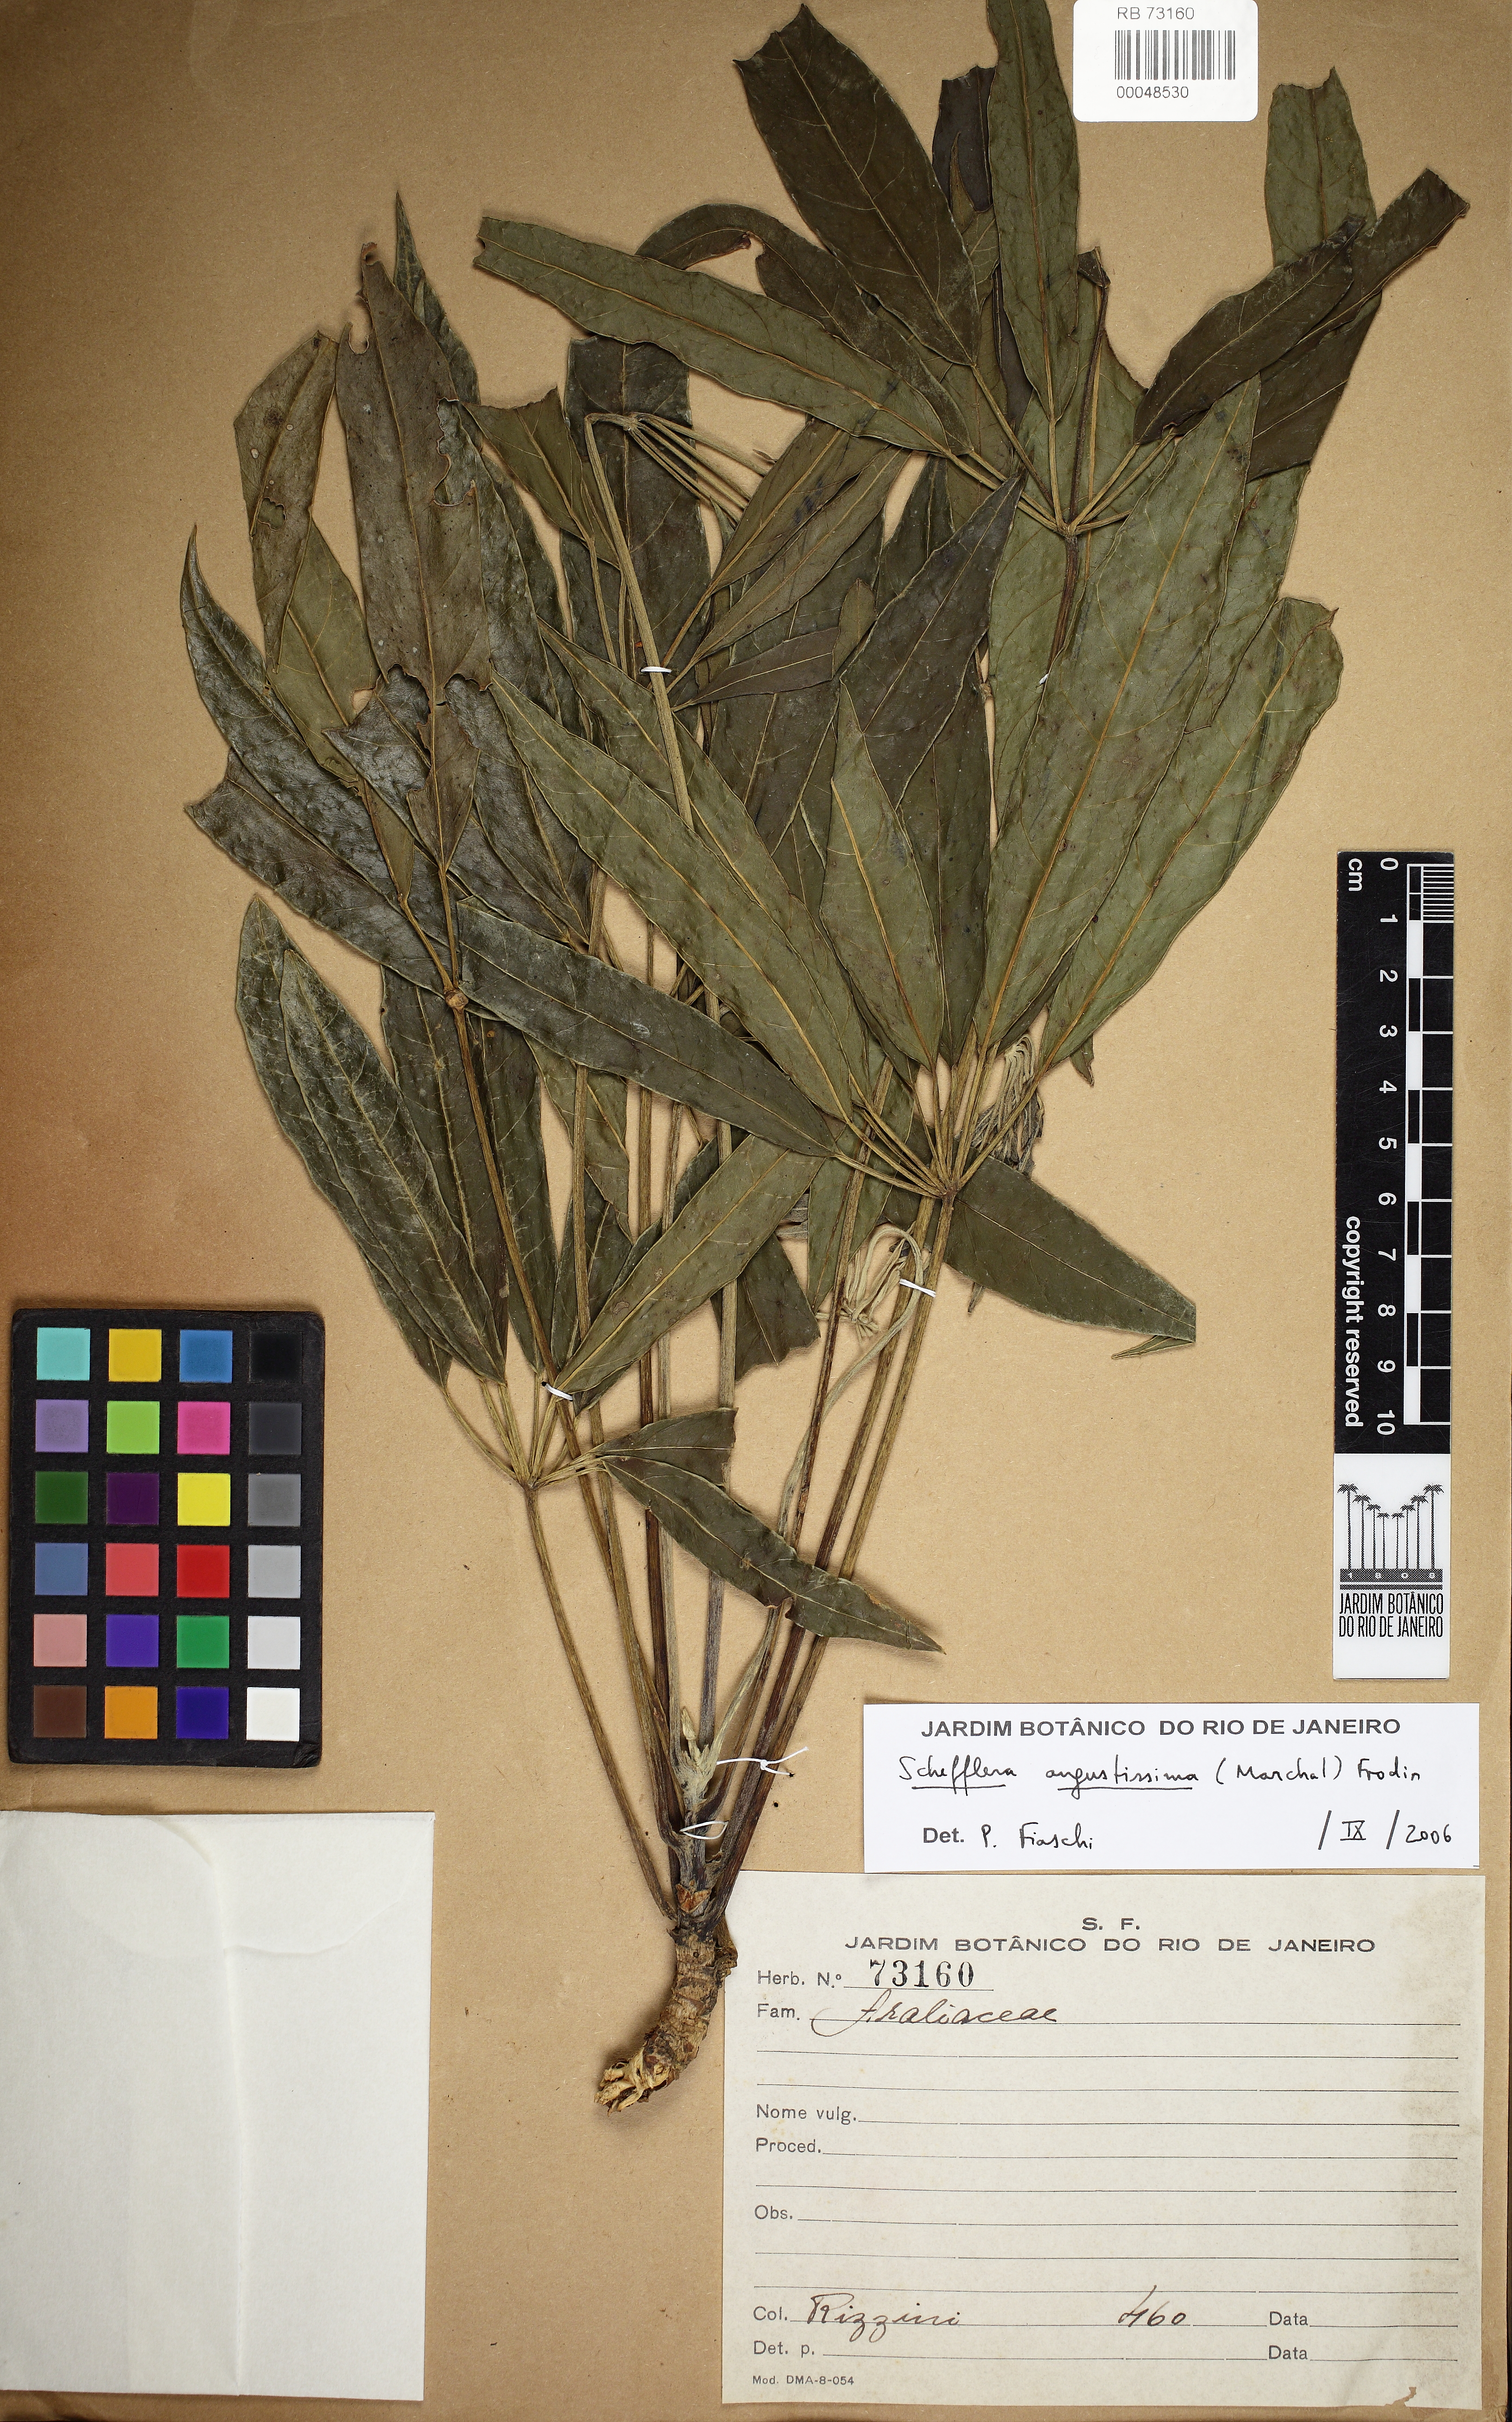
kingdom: Plantae
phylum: Tracheophyta
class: Magnoliopsida
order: Apiales
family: Araliaceae
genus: Didymopanax
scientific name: Didymopanax angustissimus
